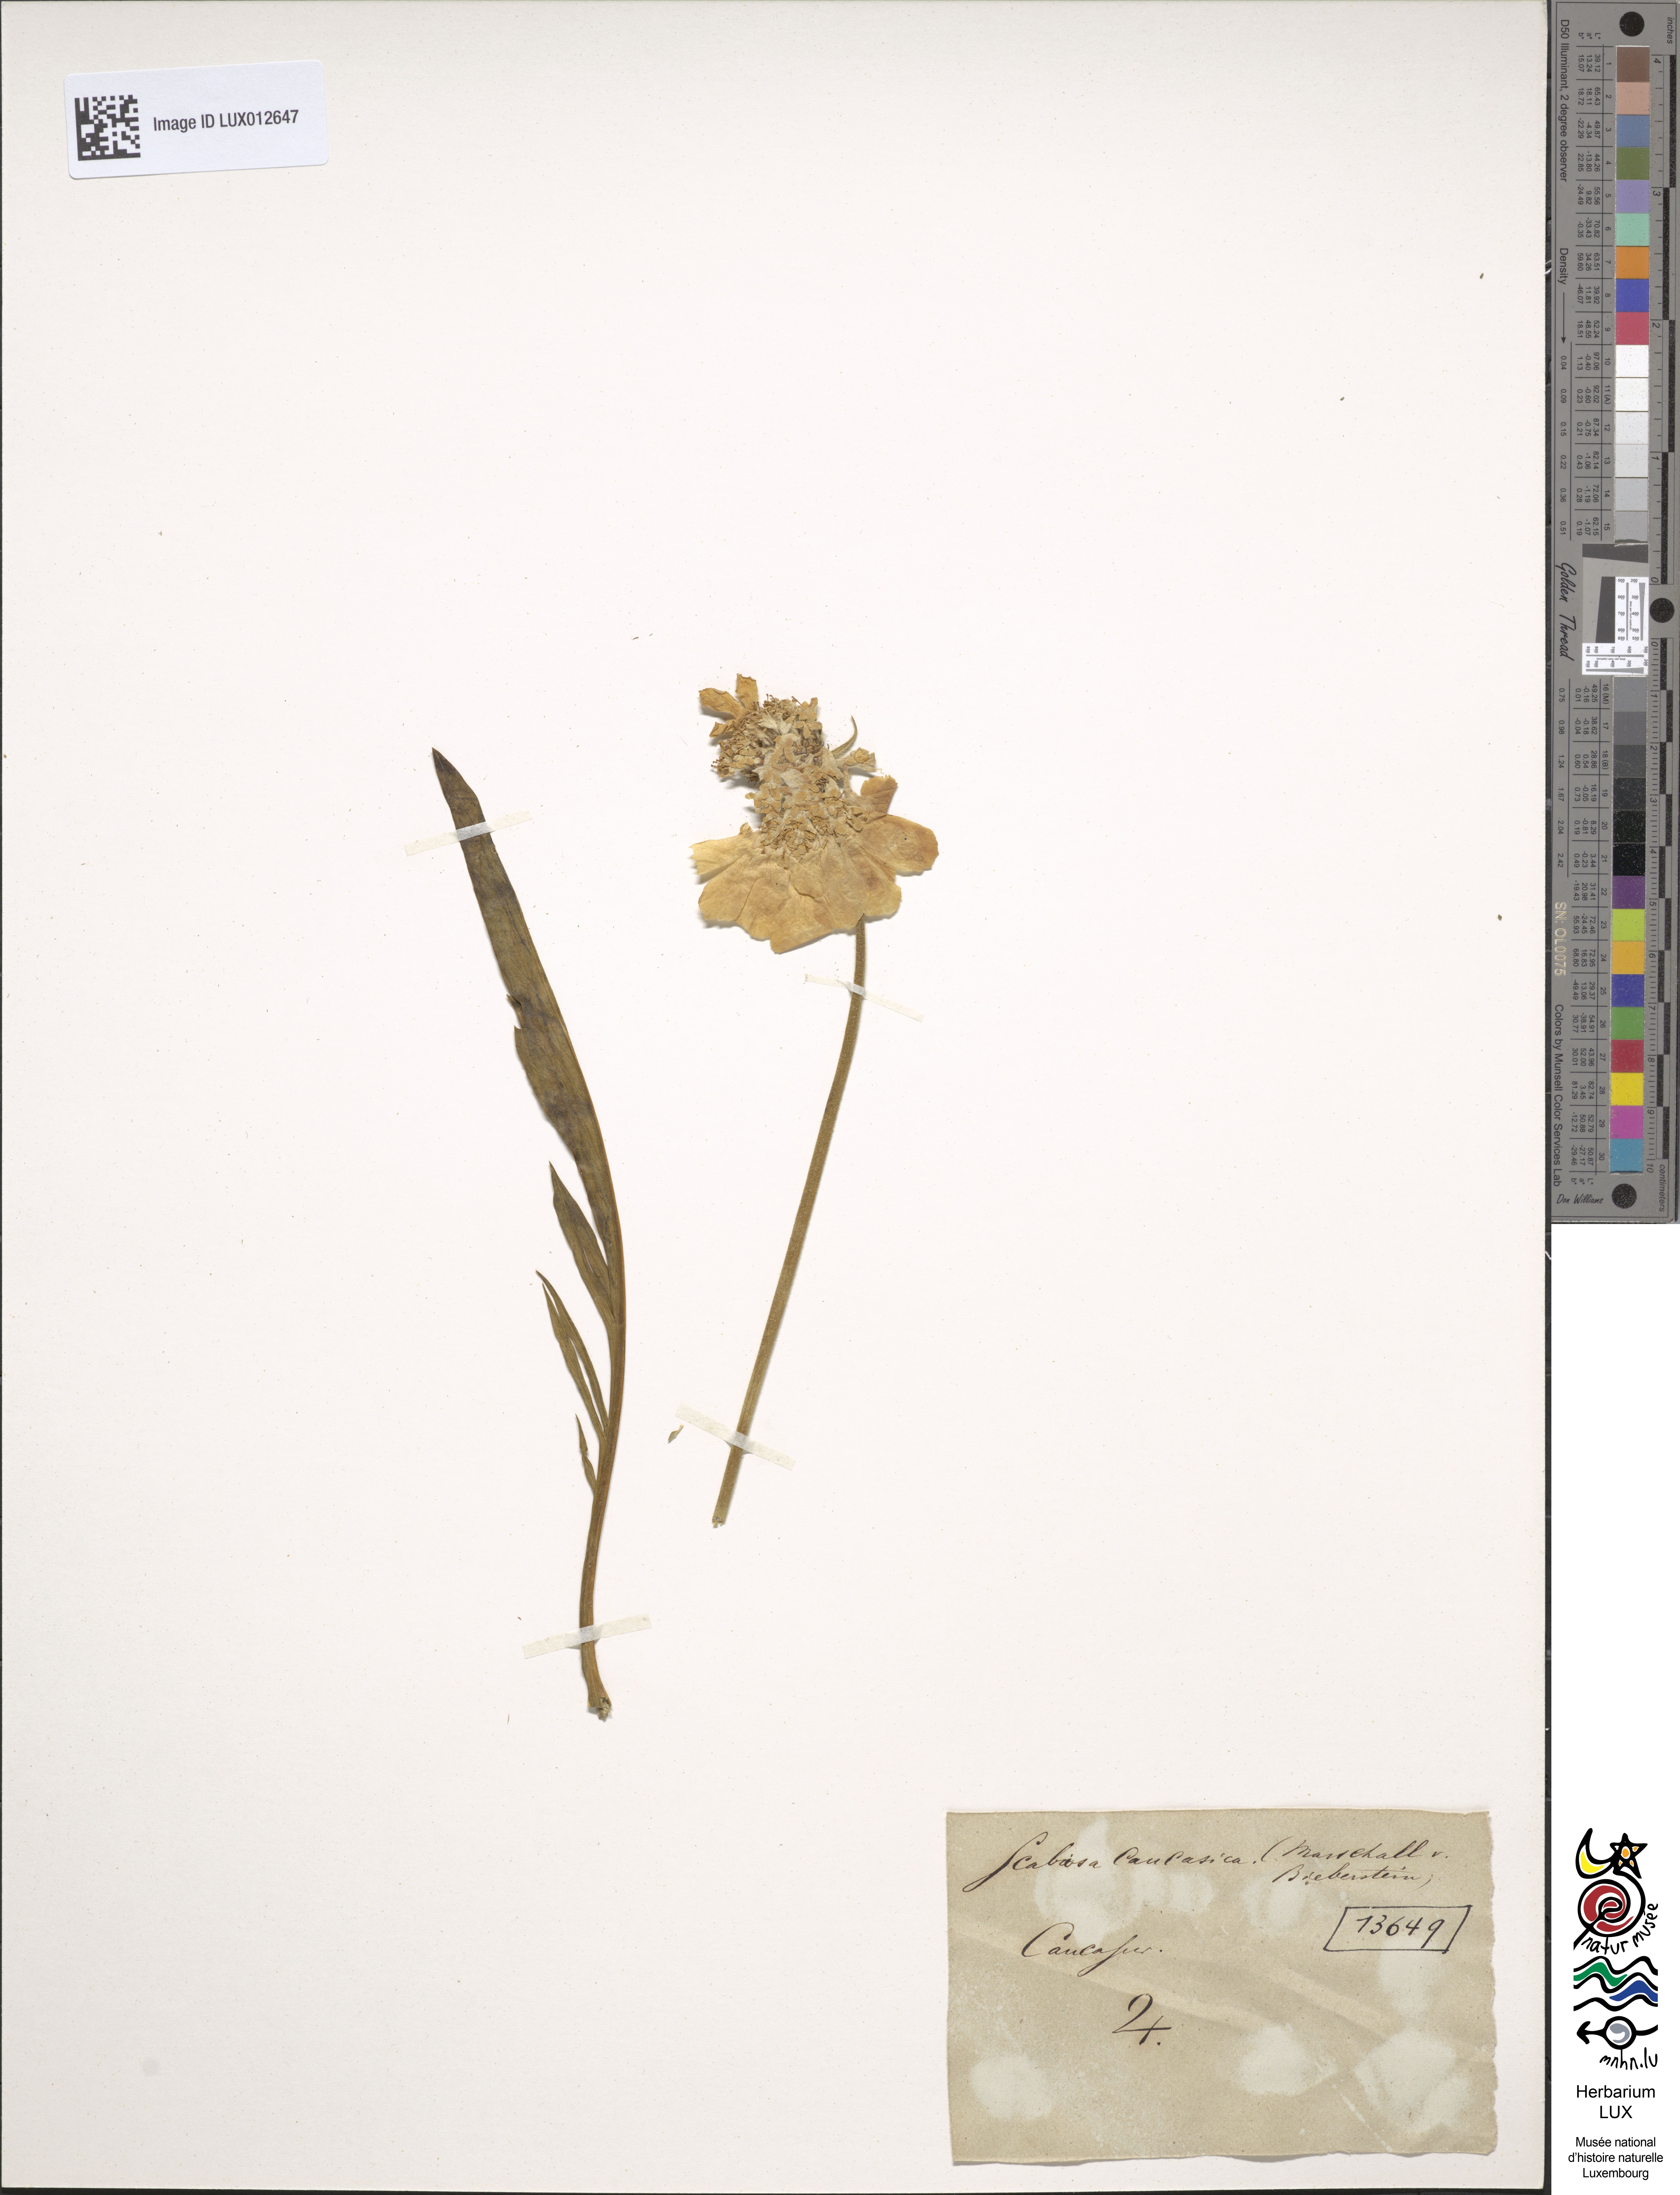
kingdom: Plantae
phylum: Tracheophyta
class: Magnoliopsida
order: Dipsacales
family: Caprifoliaceae
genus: Lomelosia
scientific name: Lomelosia caucasica
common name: Pincushion-flower
